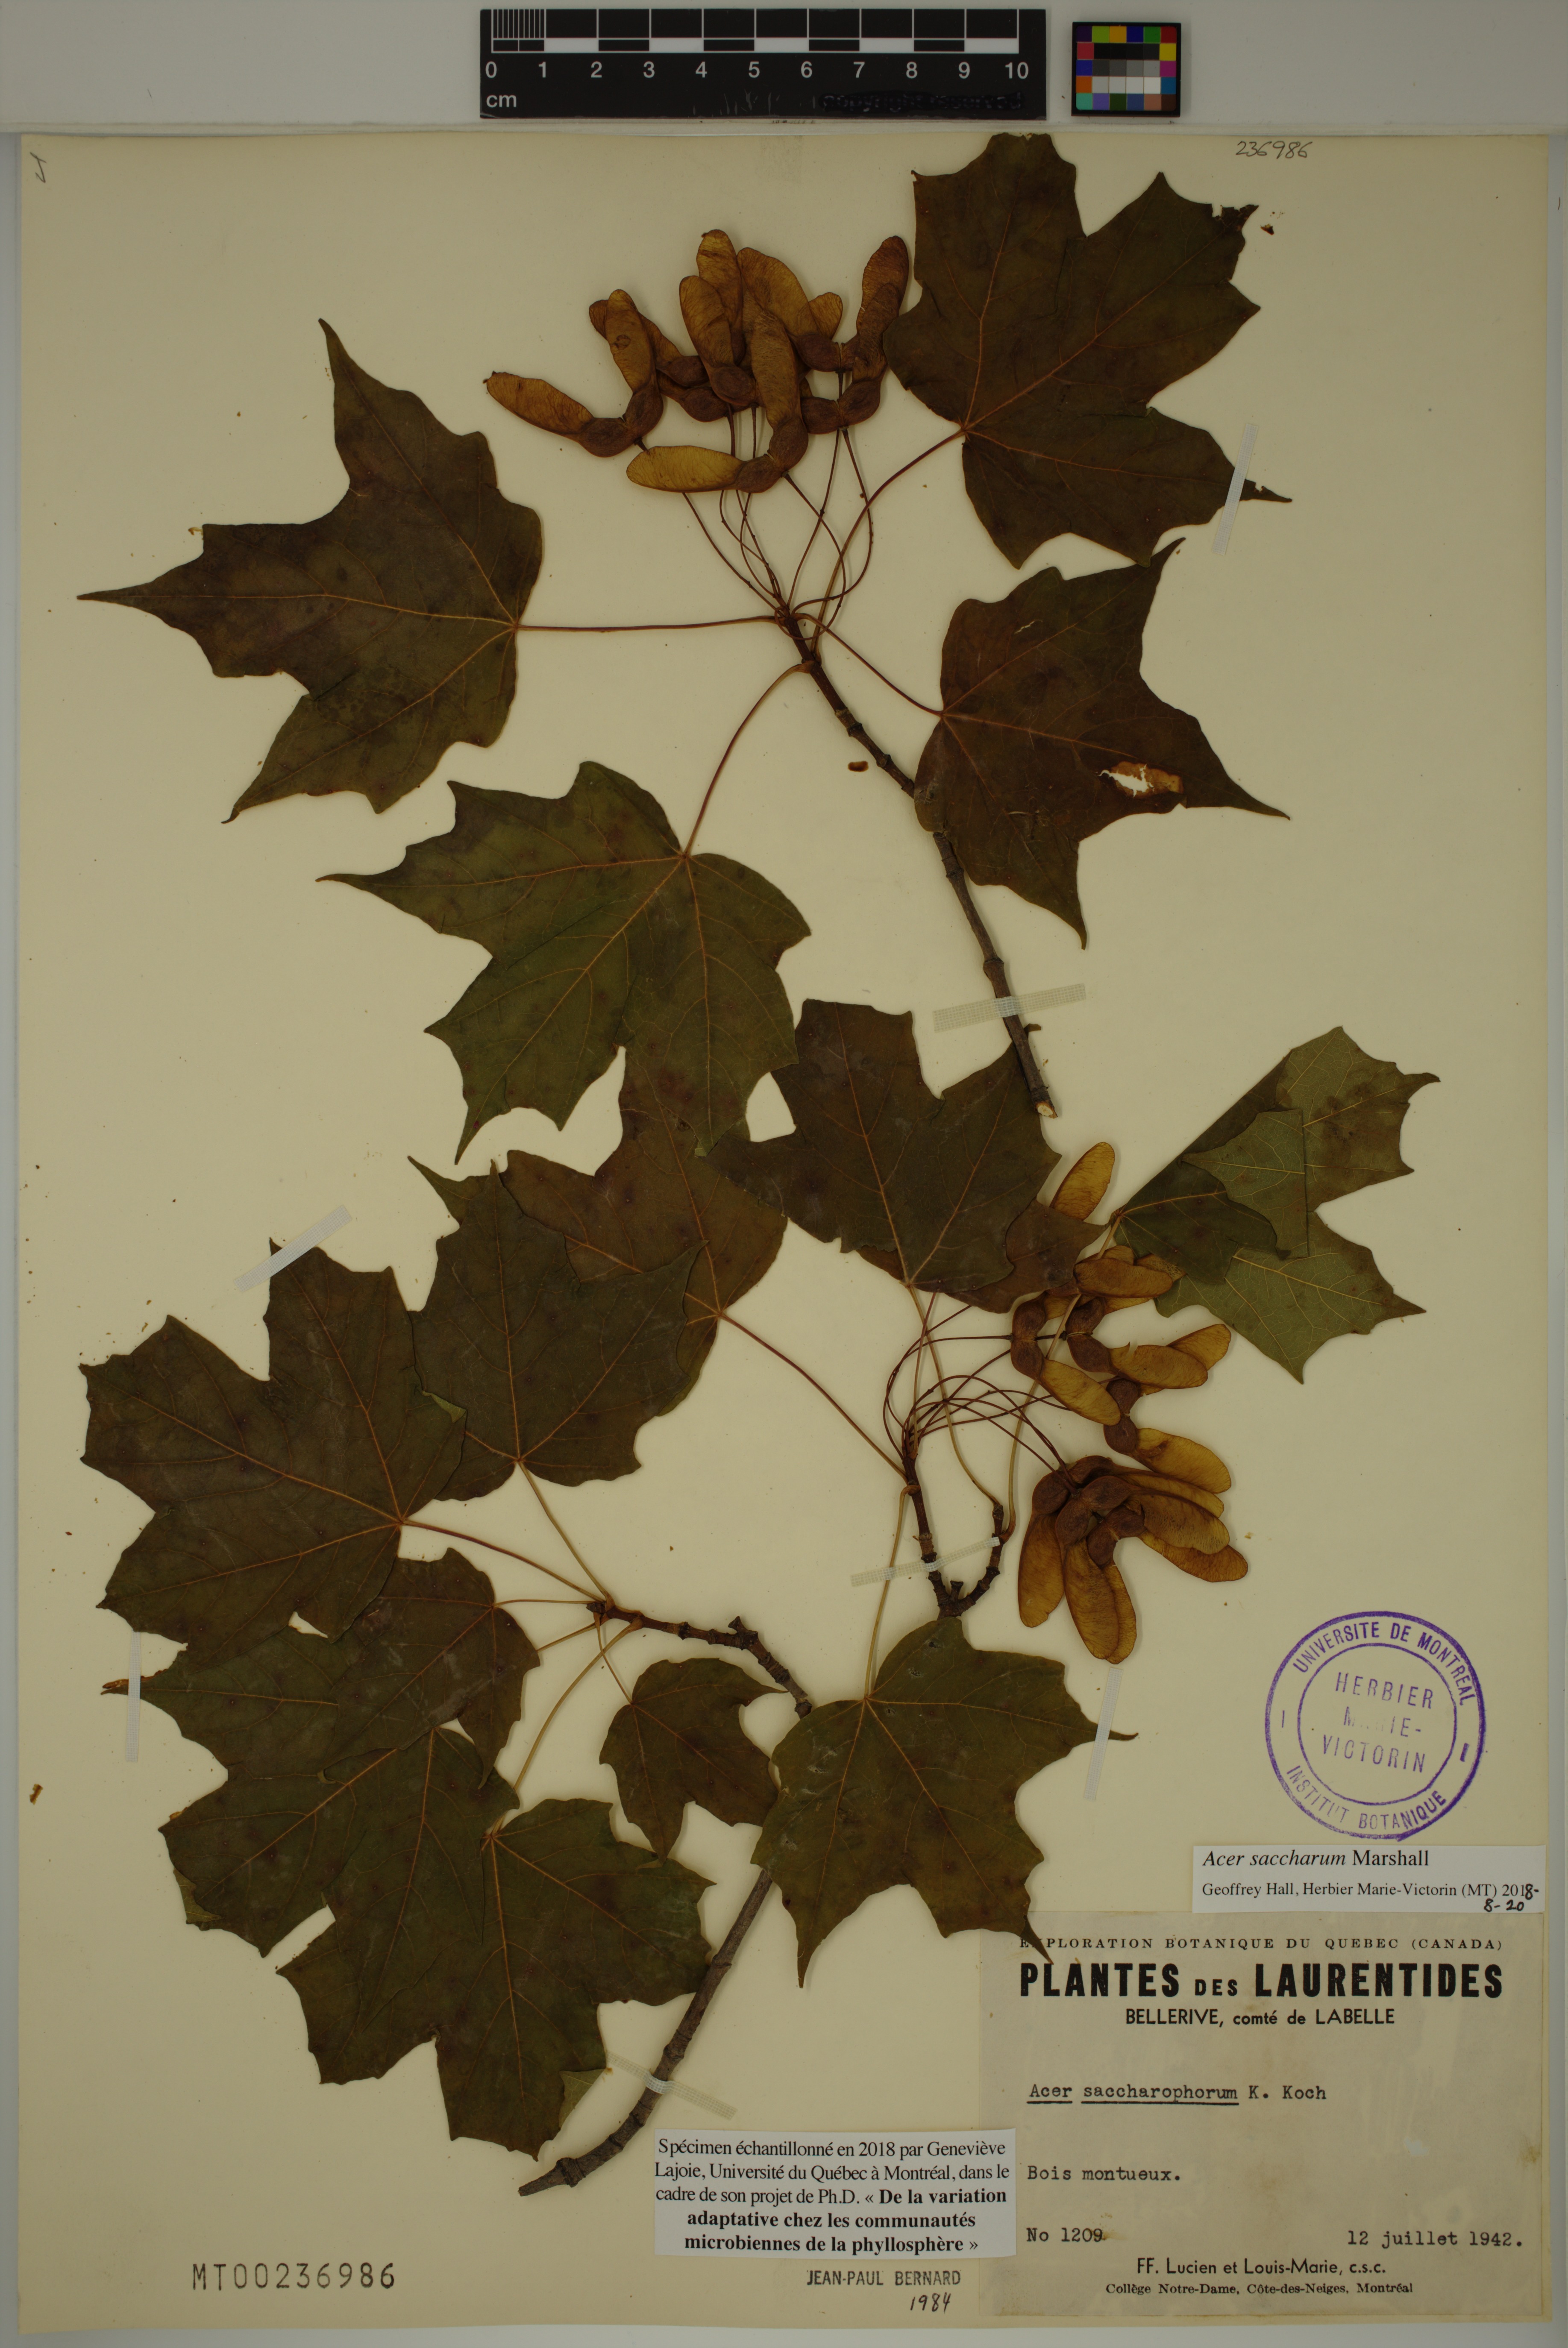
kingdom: Plantae
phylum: Tracheophyta
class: Magnoliopsida
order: Sapindales
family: Sapindaceae
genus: Acer
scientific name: Acer saccharum
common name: Sugar maple
